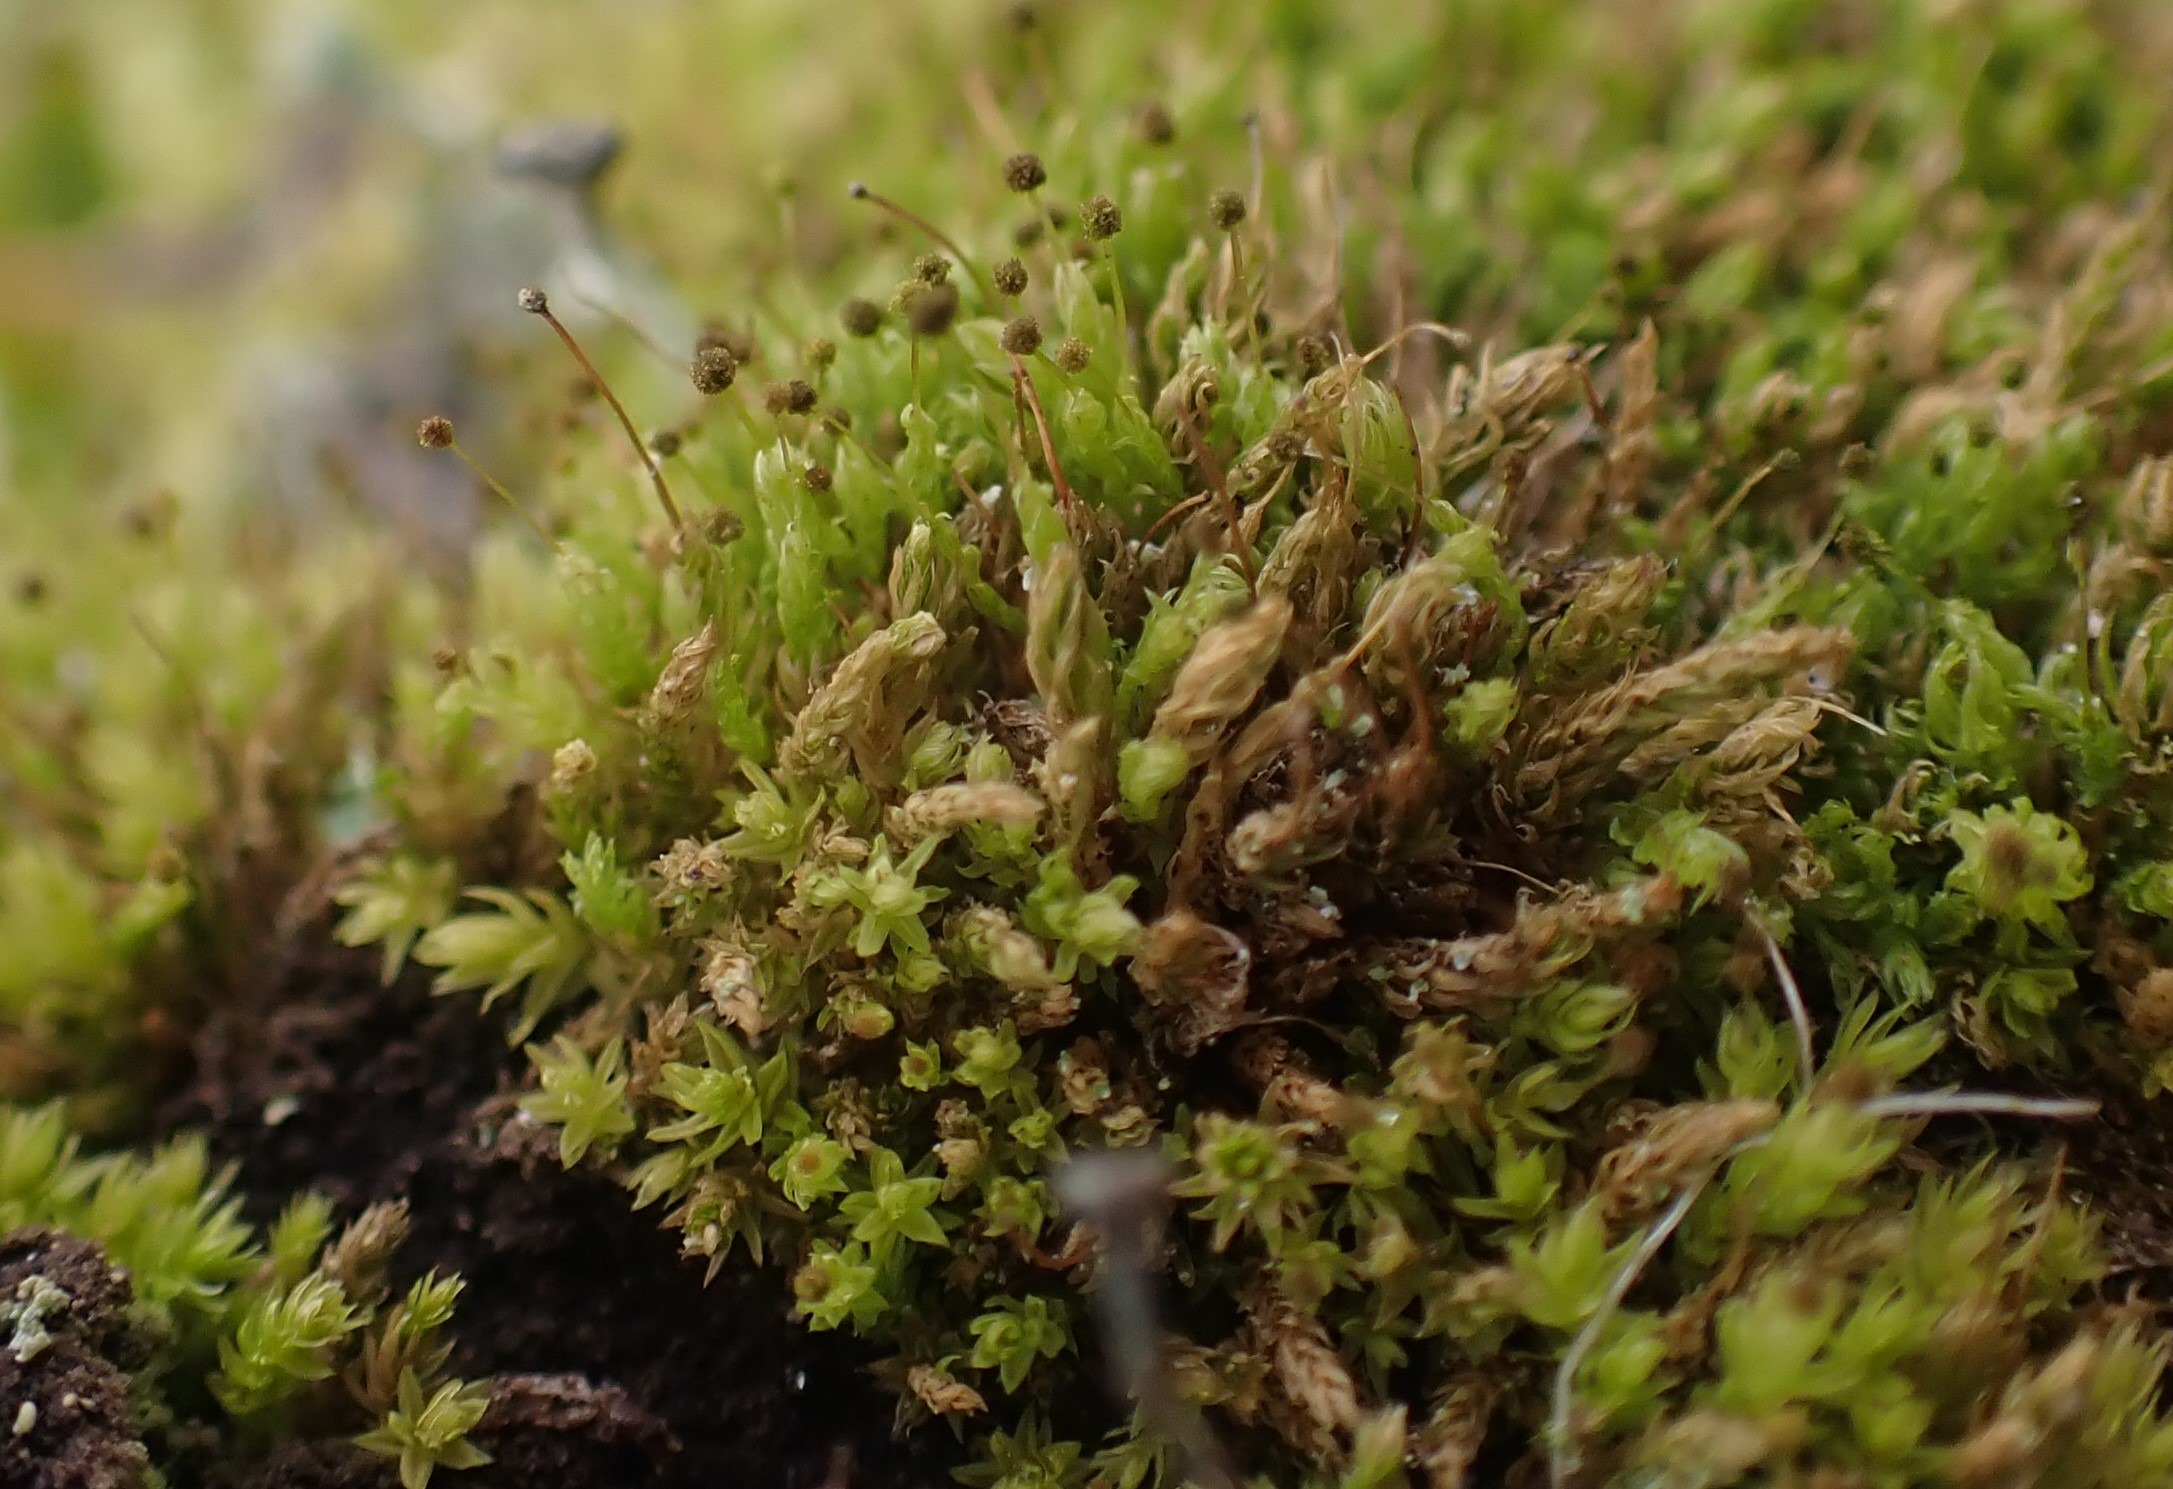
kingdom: Plantae
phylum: Bryophyta
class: Bryopsida
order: Aulacomniales
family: Aulacomniaceae
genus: Aulacomnium
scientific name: Aulacomnium androgynum
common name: Kugle-filtmos
